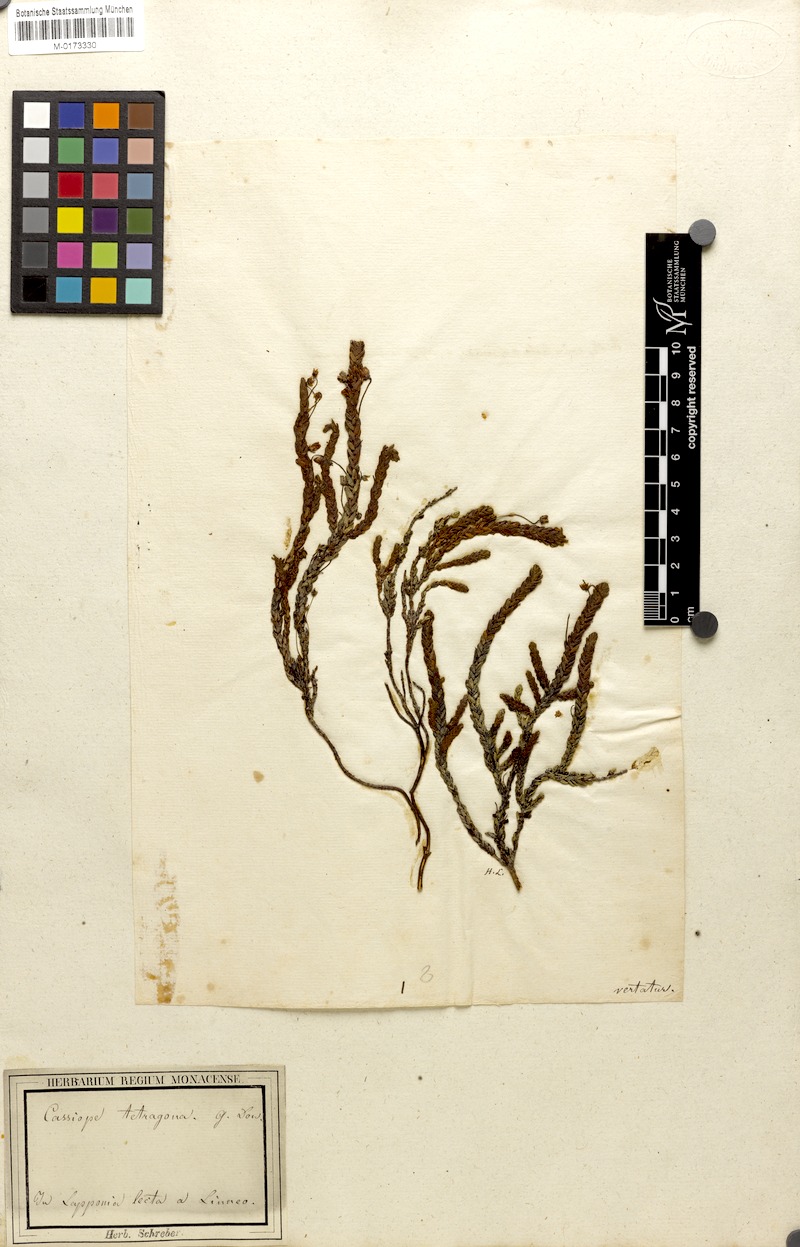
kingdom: Plantae
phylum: Tracheophyta
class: Magnoliopsida
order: Ericales
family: Ericaceae
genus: Cassiope
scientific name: Cassiope tetragona
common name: Arctic bell heather
